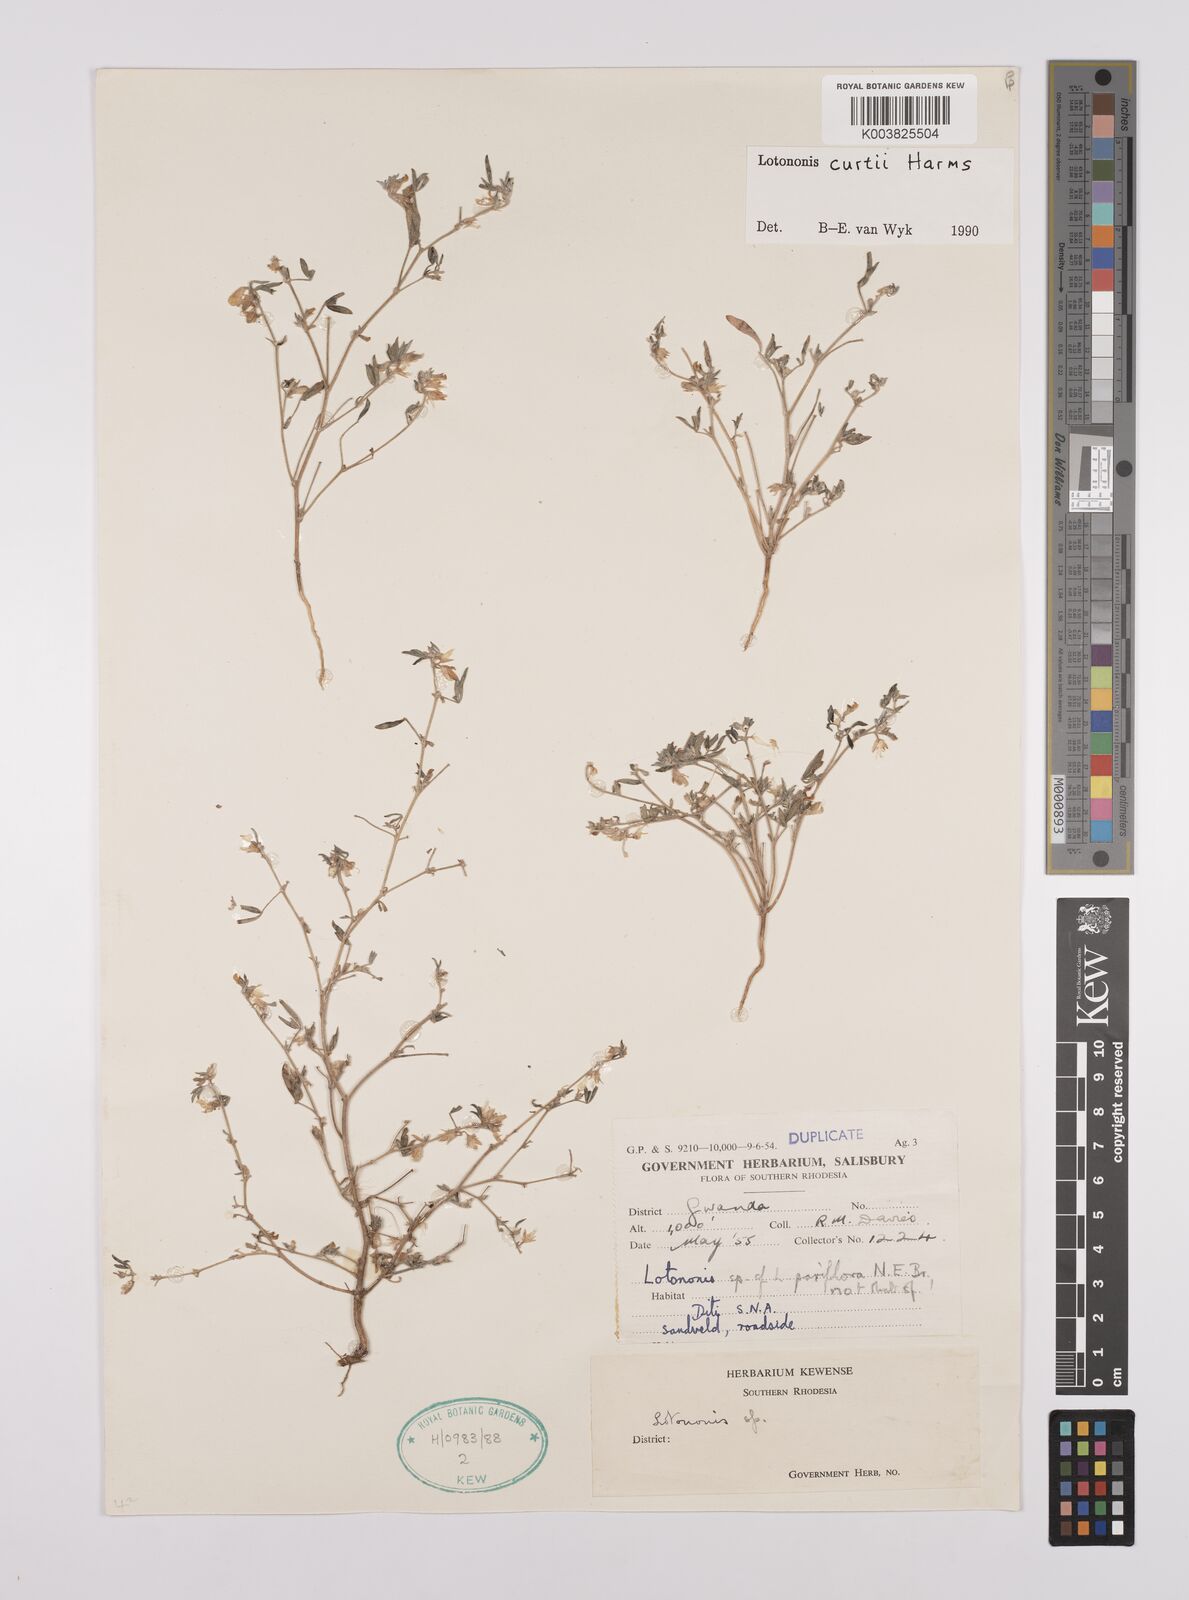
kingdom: Plantae
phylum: Tracheophyta
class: Magnoliopsida
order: Fabales
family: Fabaceae
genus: Lotononis
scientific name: Lotononis curtii
